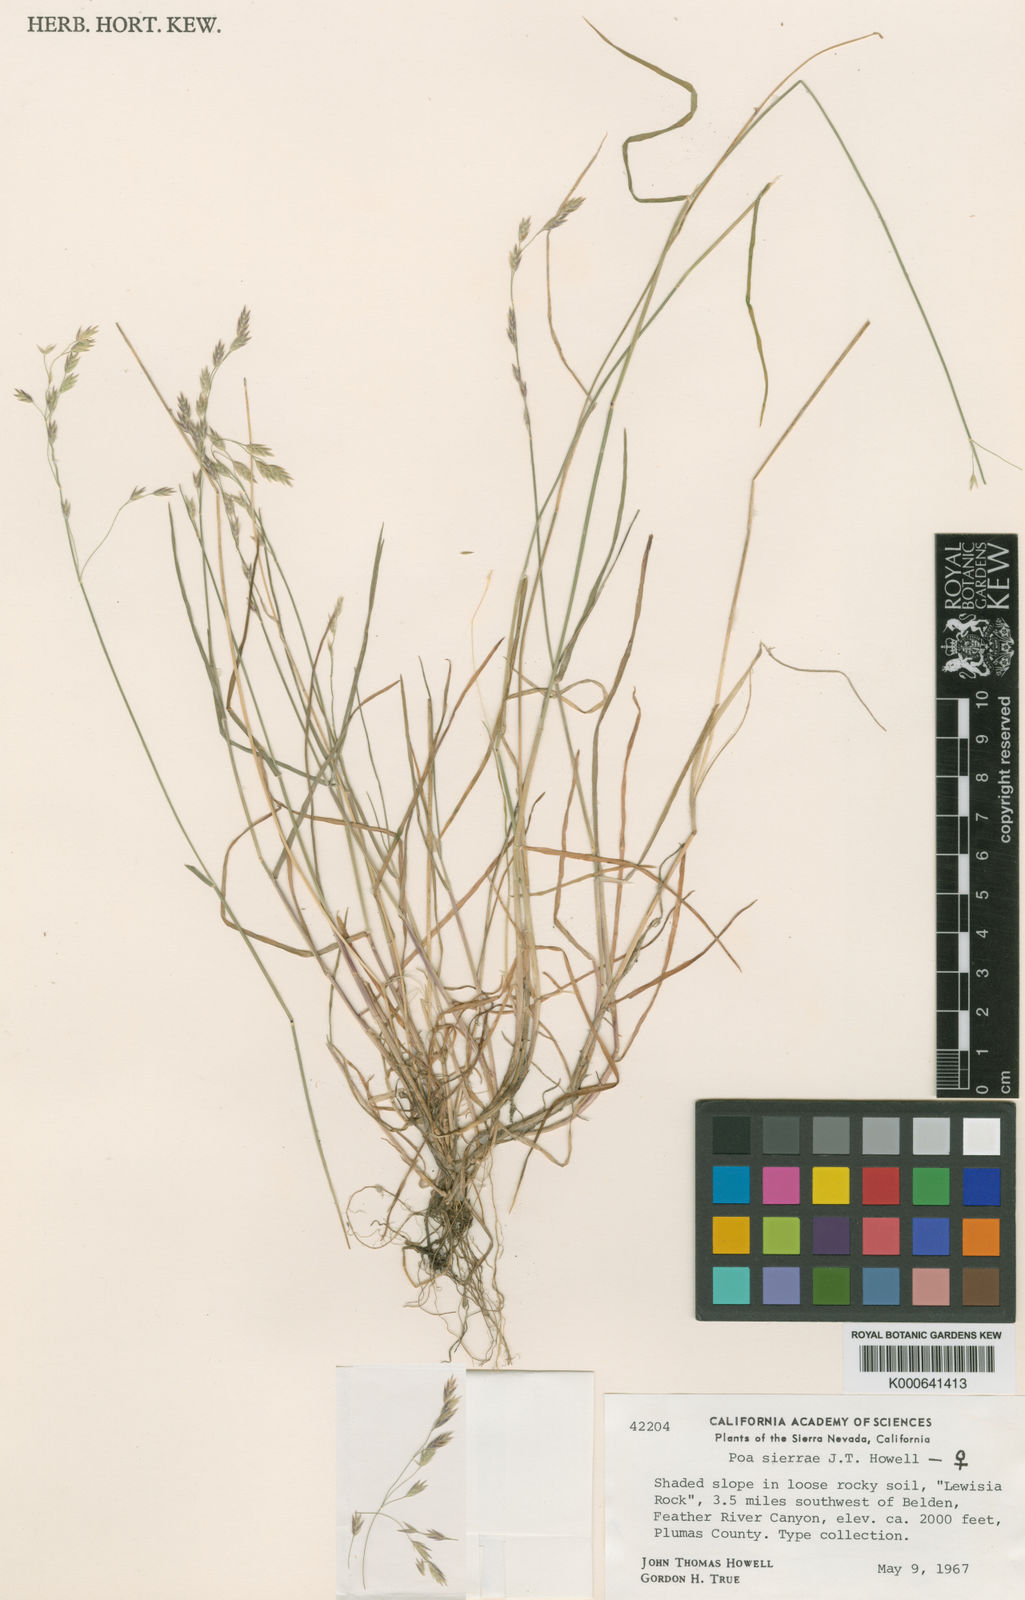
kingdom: Plantae
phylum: Tracheophyta
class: Liliopsida
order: Poales
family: Poaceae
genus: Poa
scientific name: Poa sierrae
